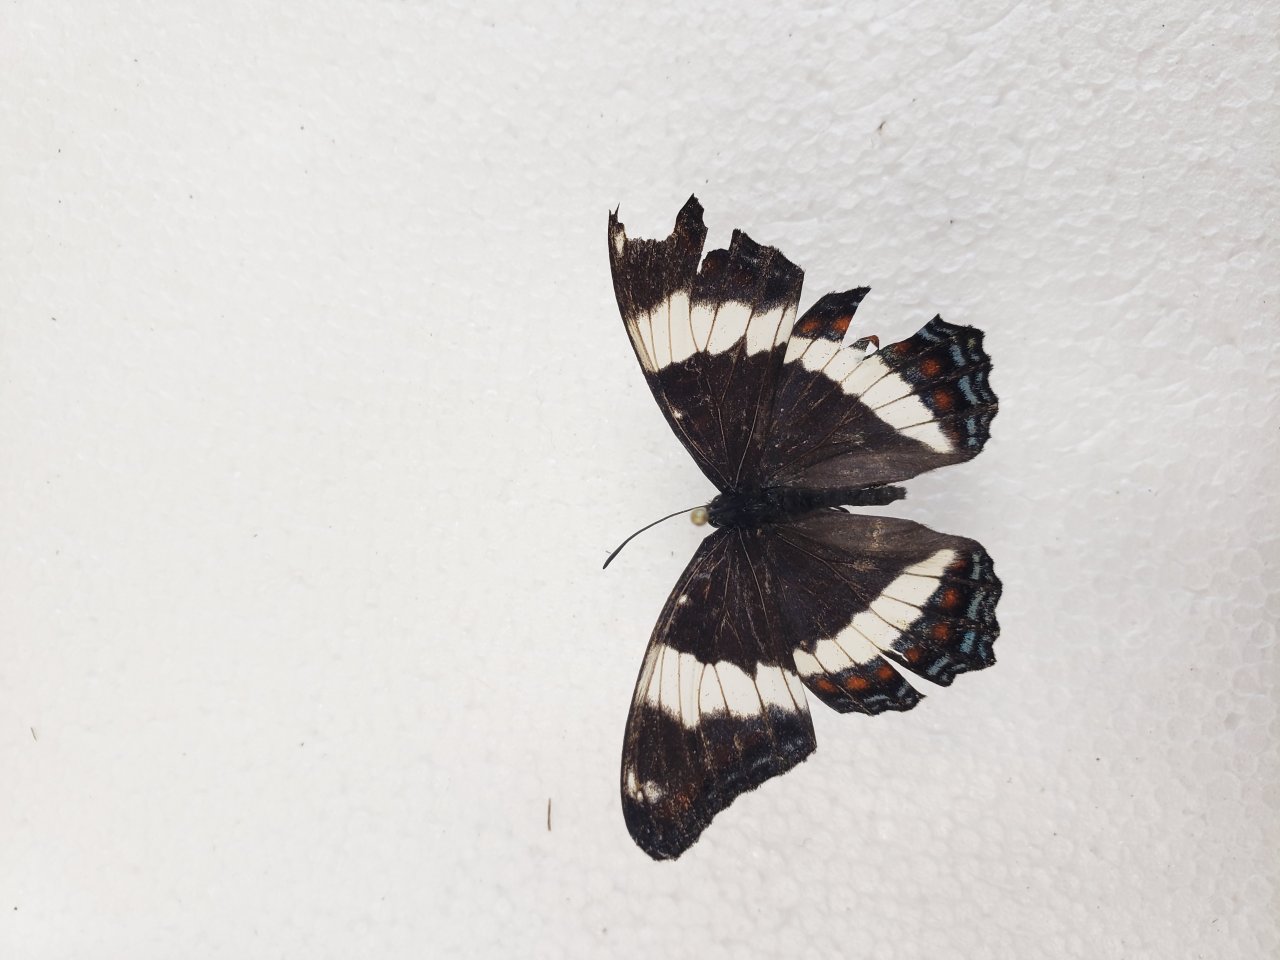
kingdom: Animalia
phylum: Arthropoda
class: Insecta
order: Lepidoptera
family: Nymphalidae
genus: Limenitis
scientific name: Limenitis arthemis
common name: Red-spotted Admiral
